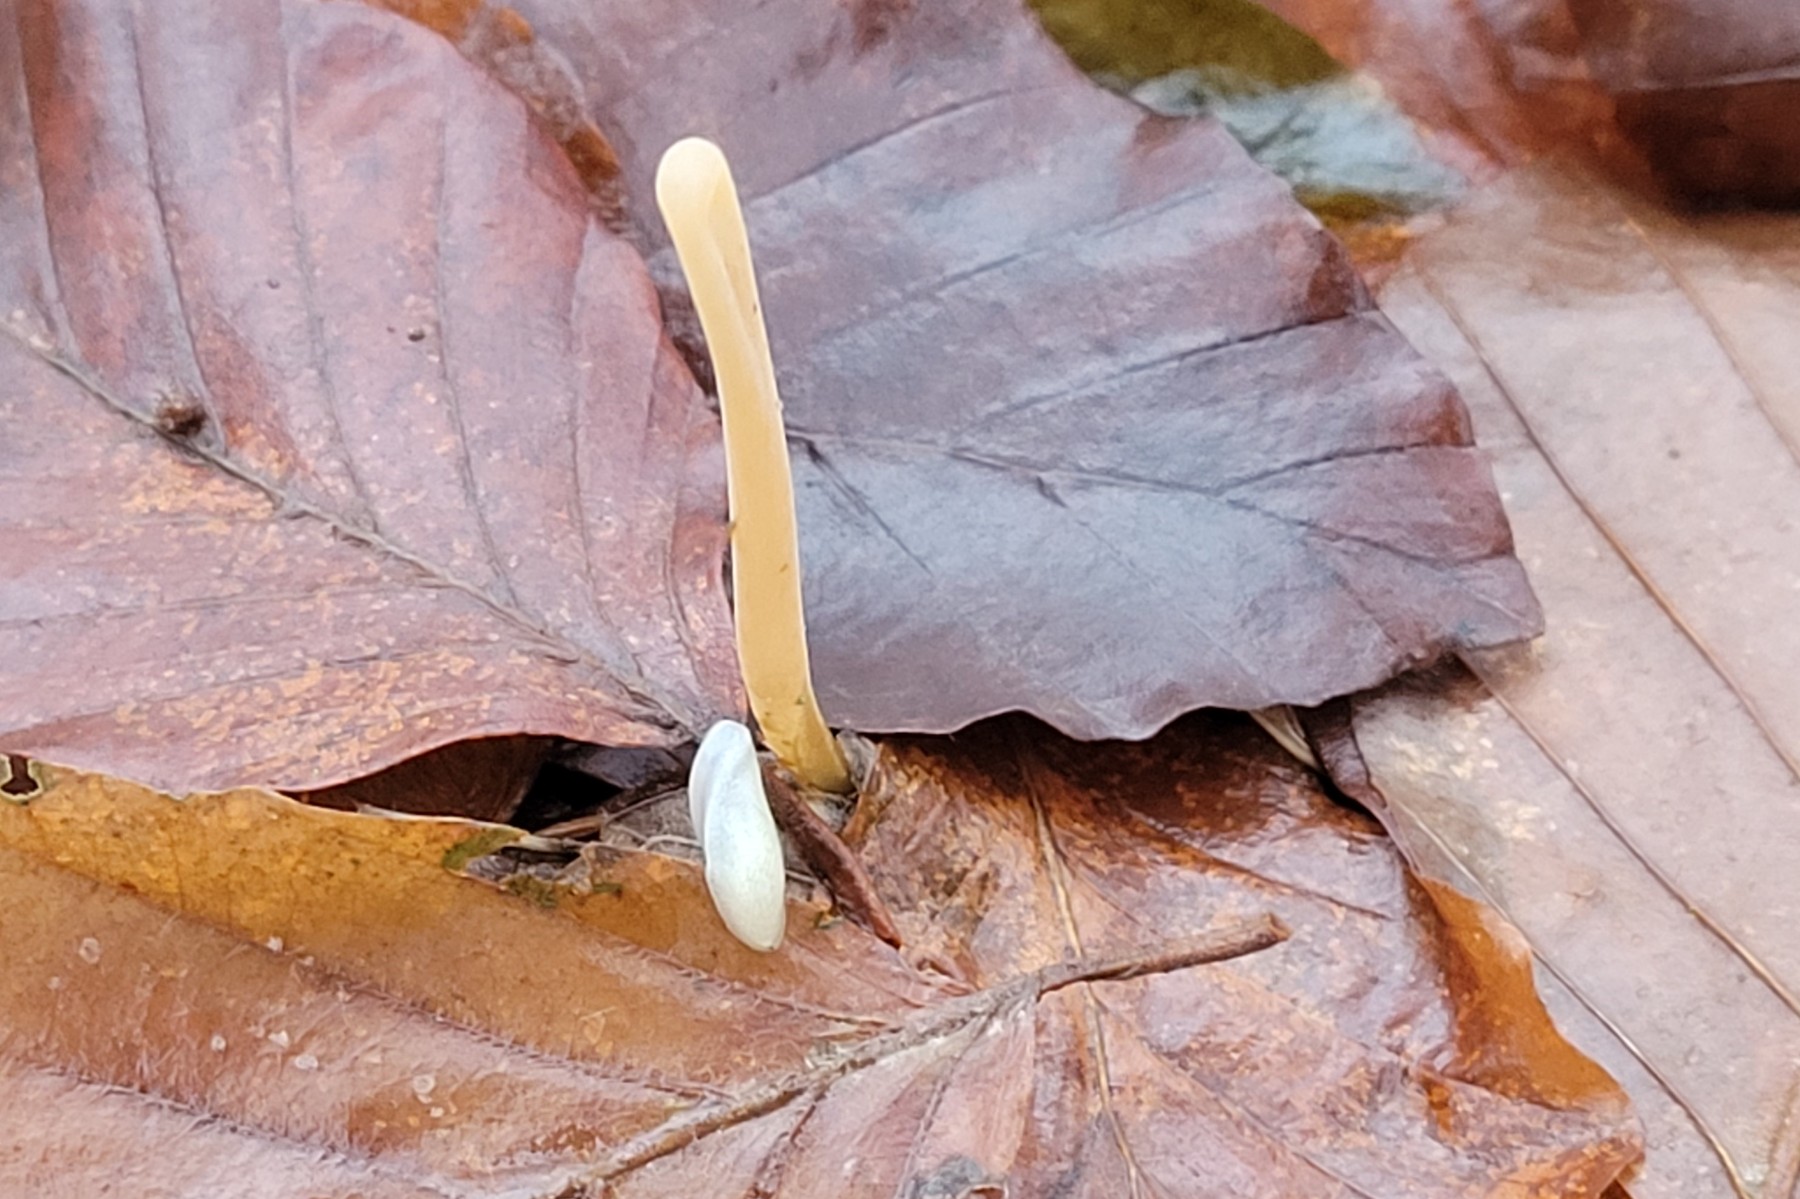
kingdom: Fungi
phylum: Basidiomycota
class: Agaricomycetes
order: Agaricales
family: Typhulaceae
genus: Typhula
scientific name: Typhula fistulosa
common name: pibet rørkølle
